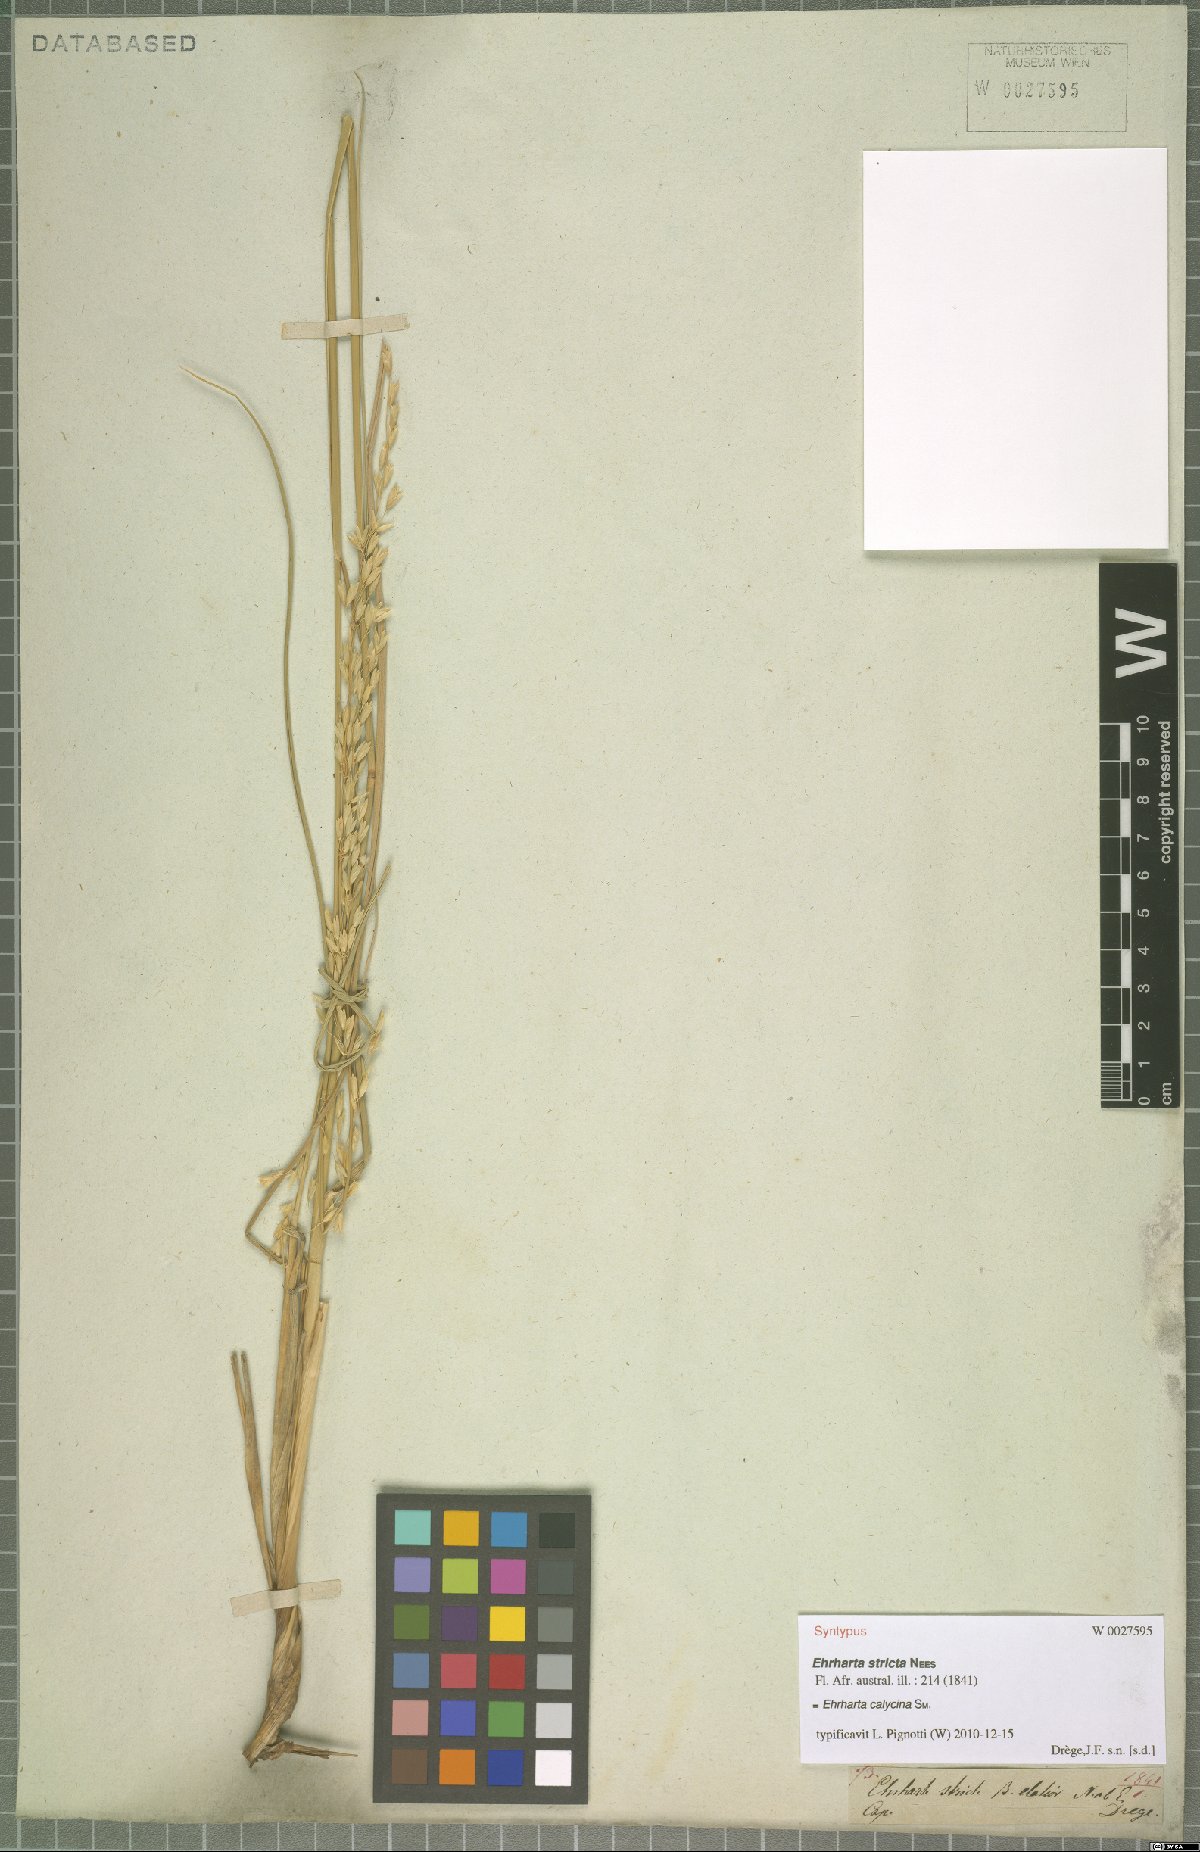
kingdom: Plantae
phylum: Tracheophyta
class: Liliopsida
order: Poales
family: Poaceae
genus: Ehrharta
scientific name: Ehrharta calycina
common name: Perennial veldtgrass
